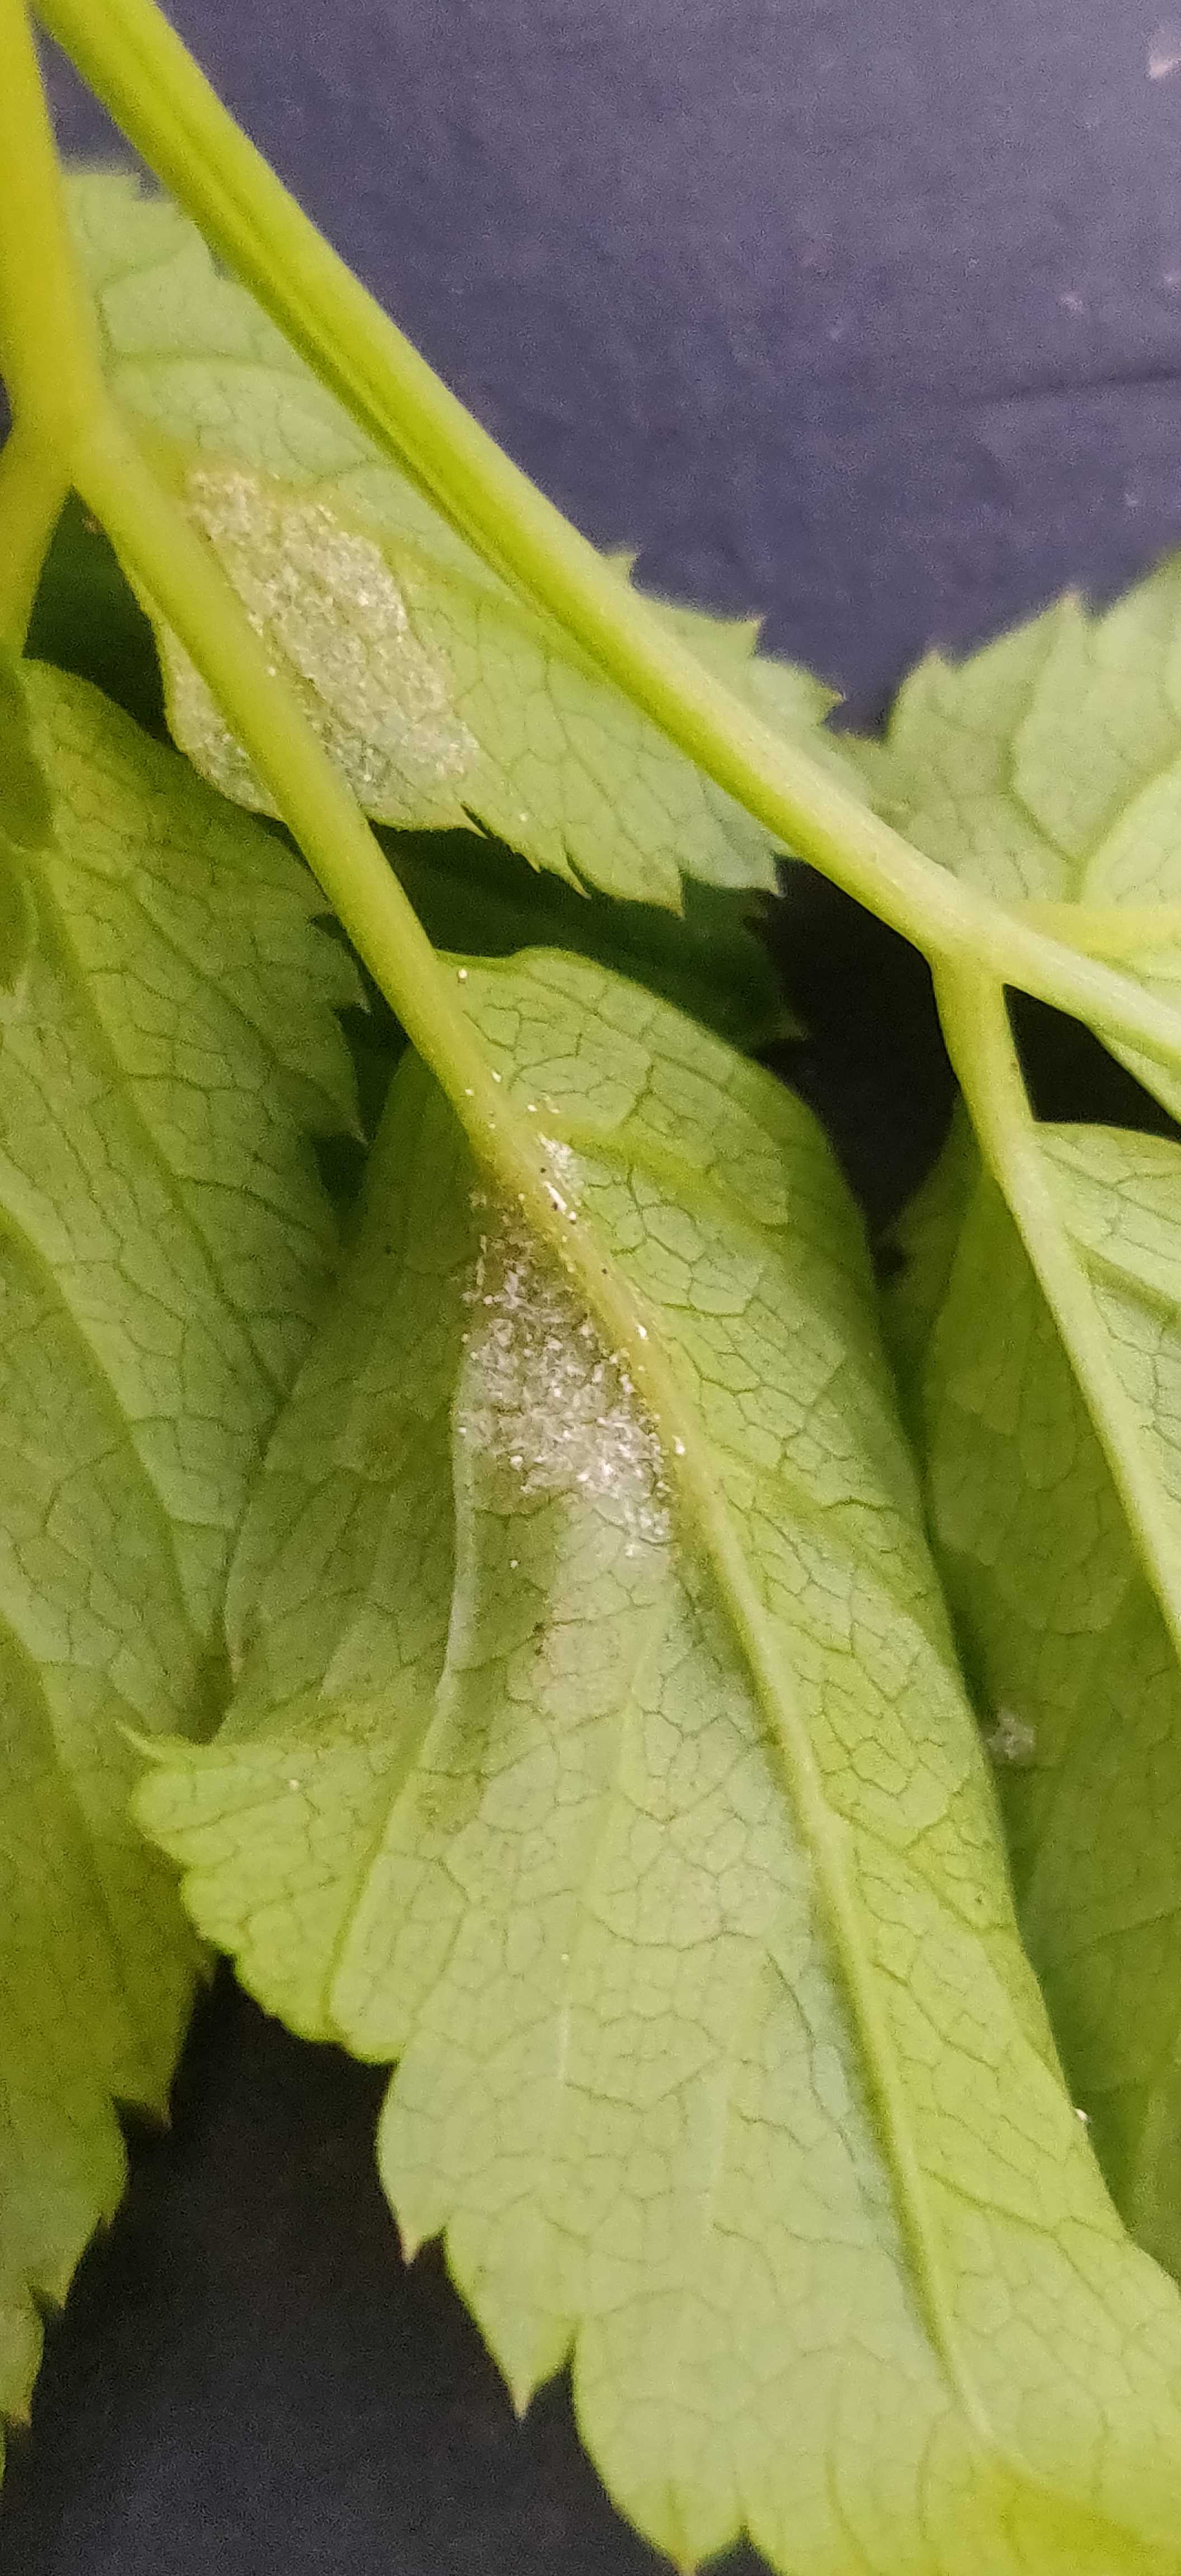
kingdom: Chromista
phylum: Oomycota
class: Peronosporea
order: Peronosporales
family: Peronosporaceae
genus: Peronospora
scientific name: Peronospora crustosa
